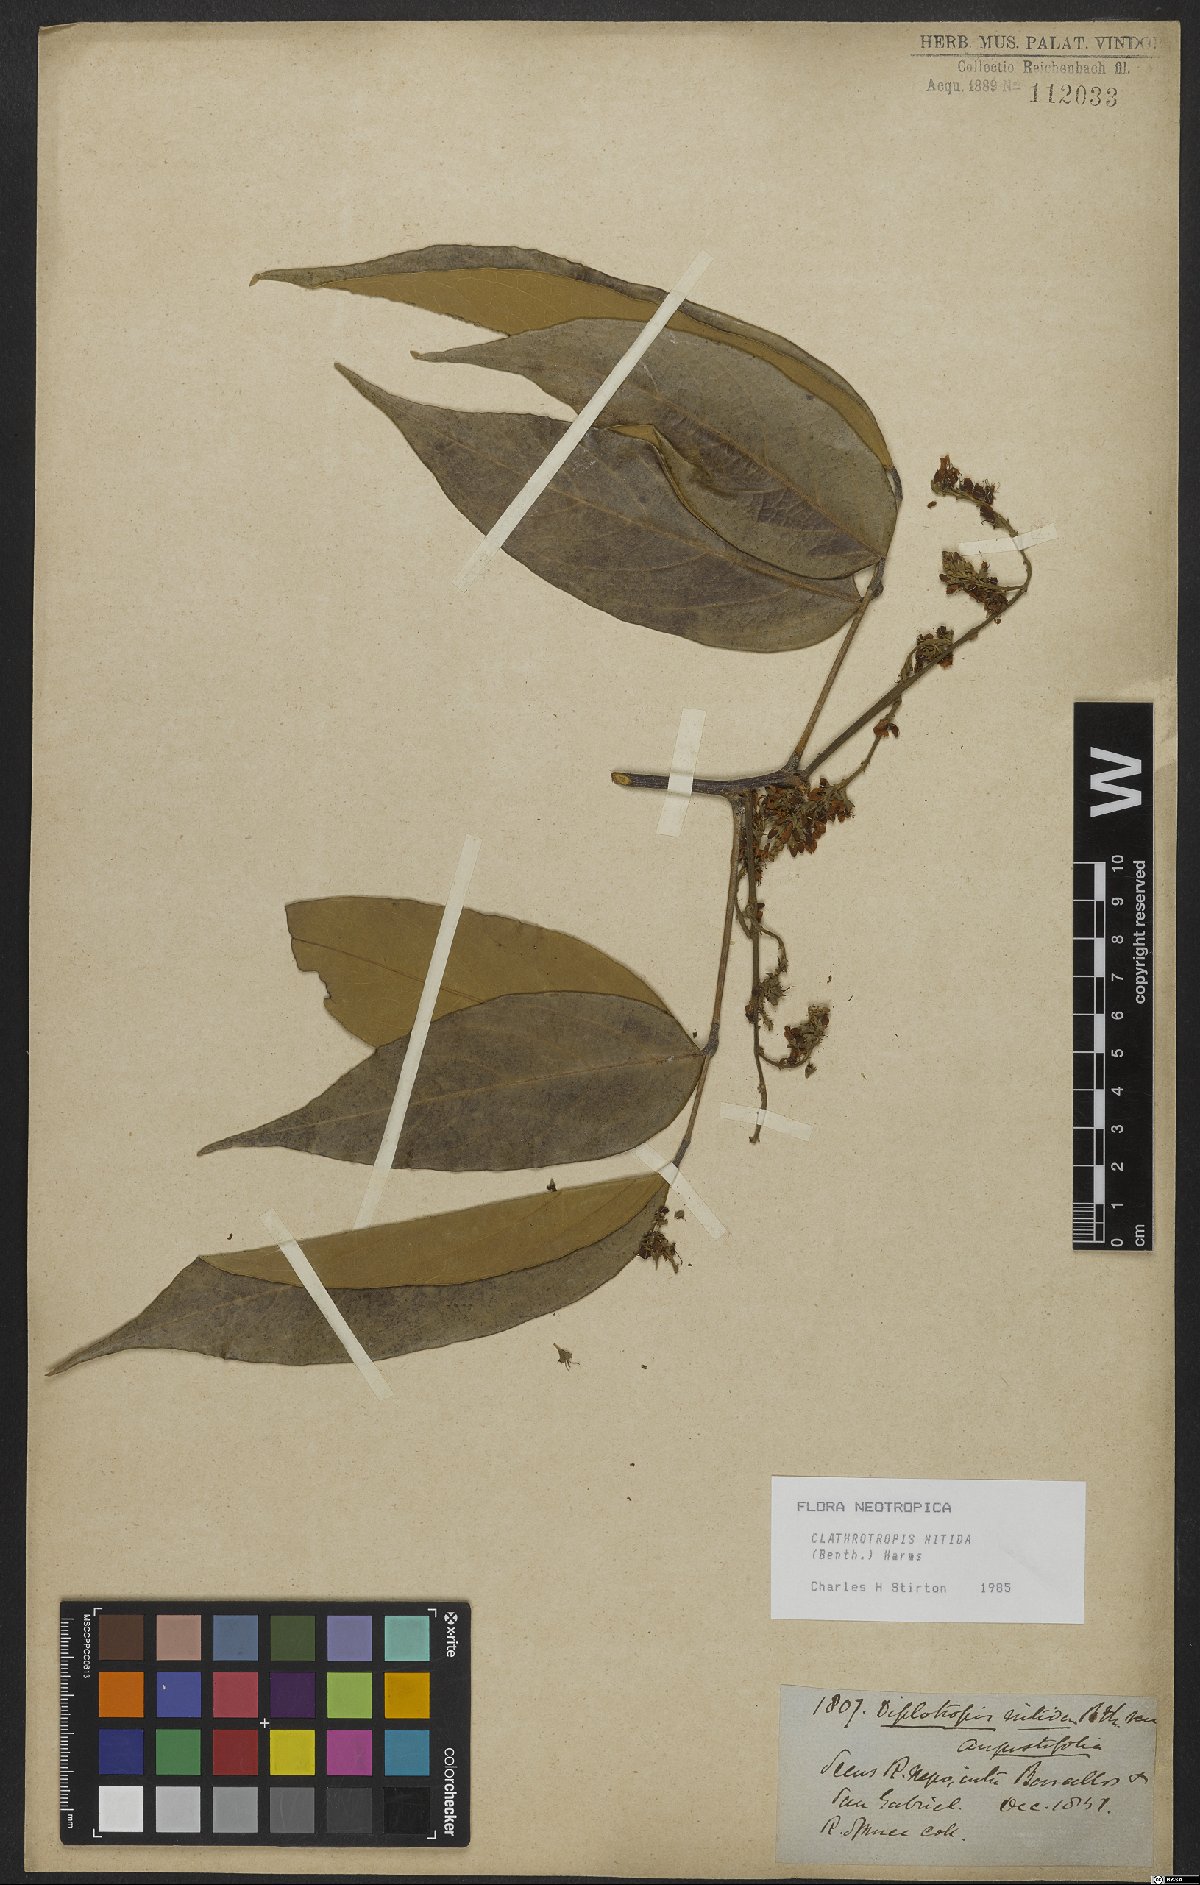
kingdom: Plantae
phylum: Tracheophyta
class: Magnoliopsida
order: Fabales
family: Fabaceae
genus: Clathrotropis
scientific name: Clathrotropis nitida
